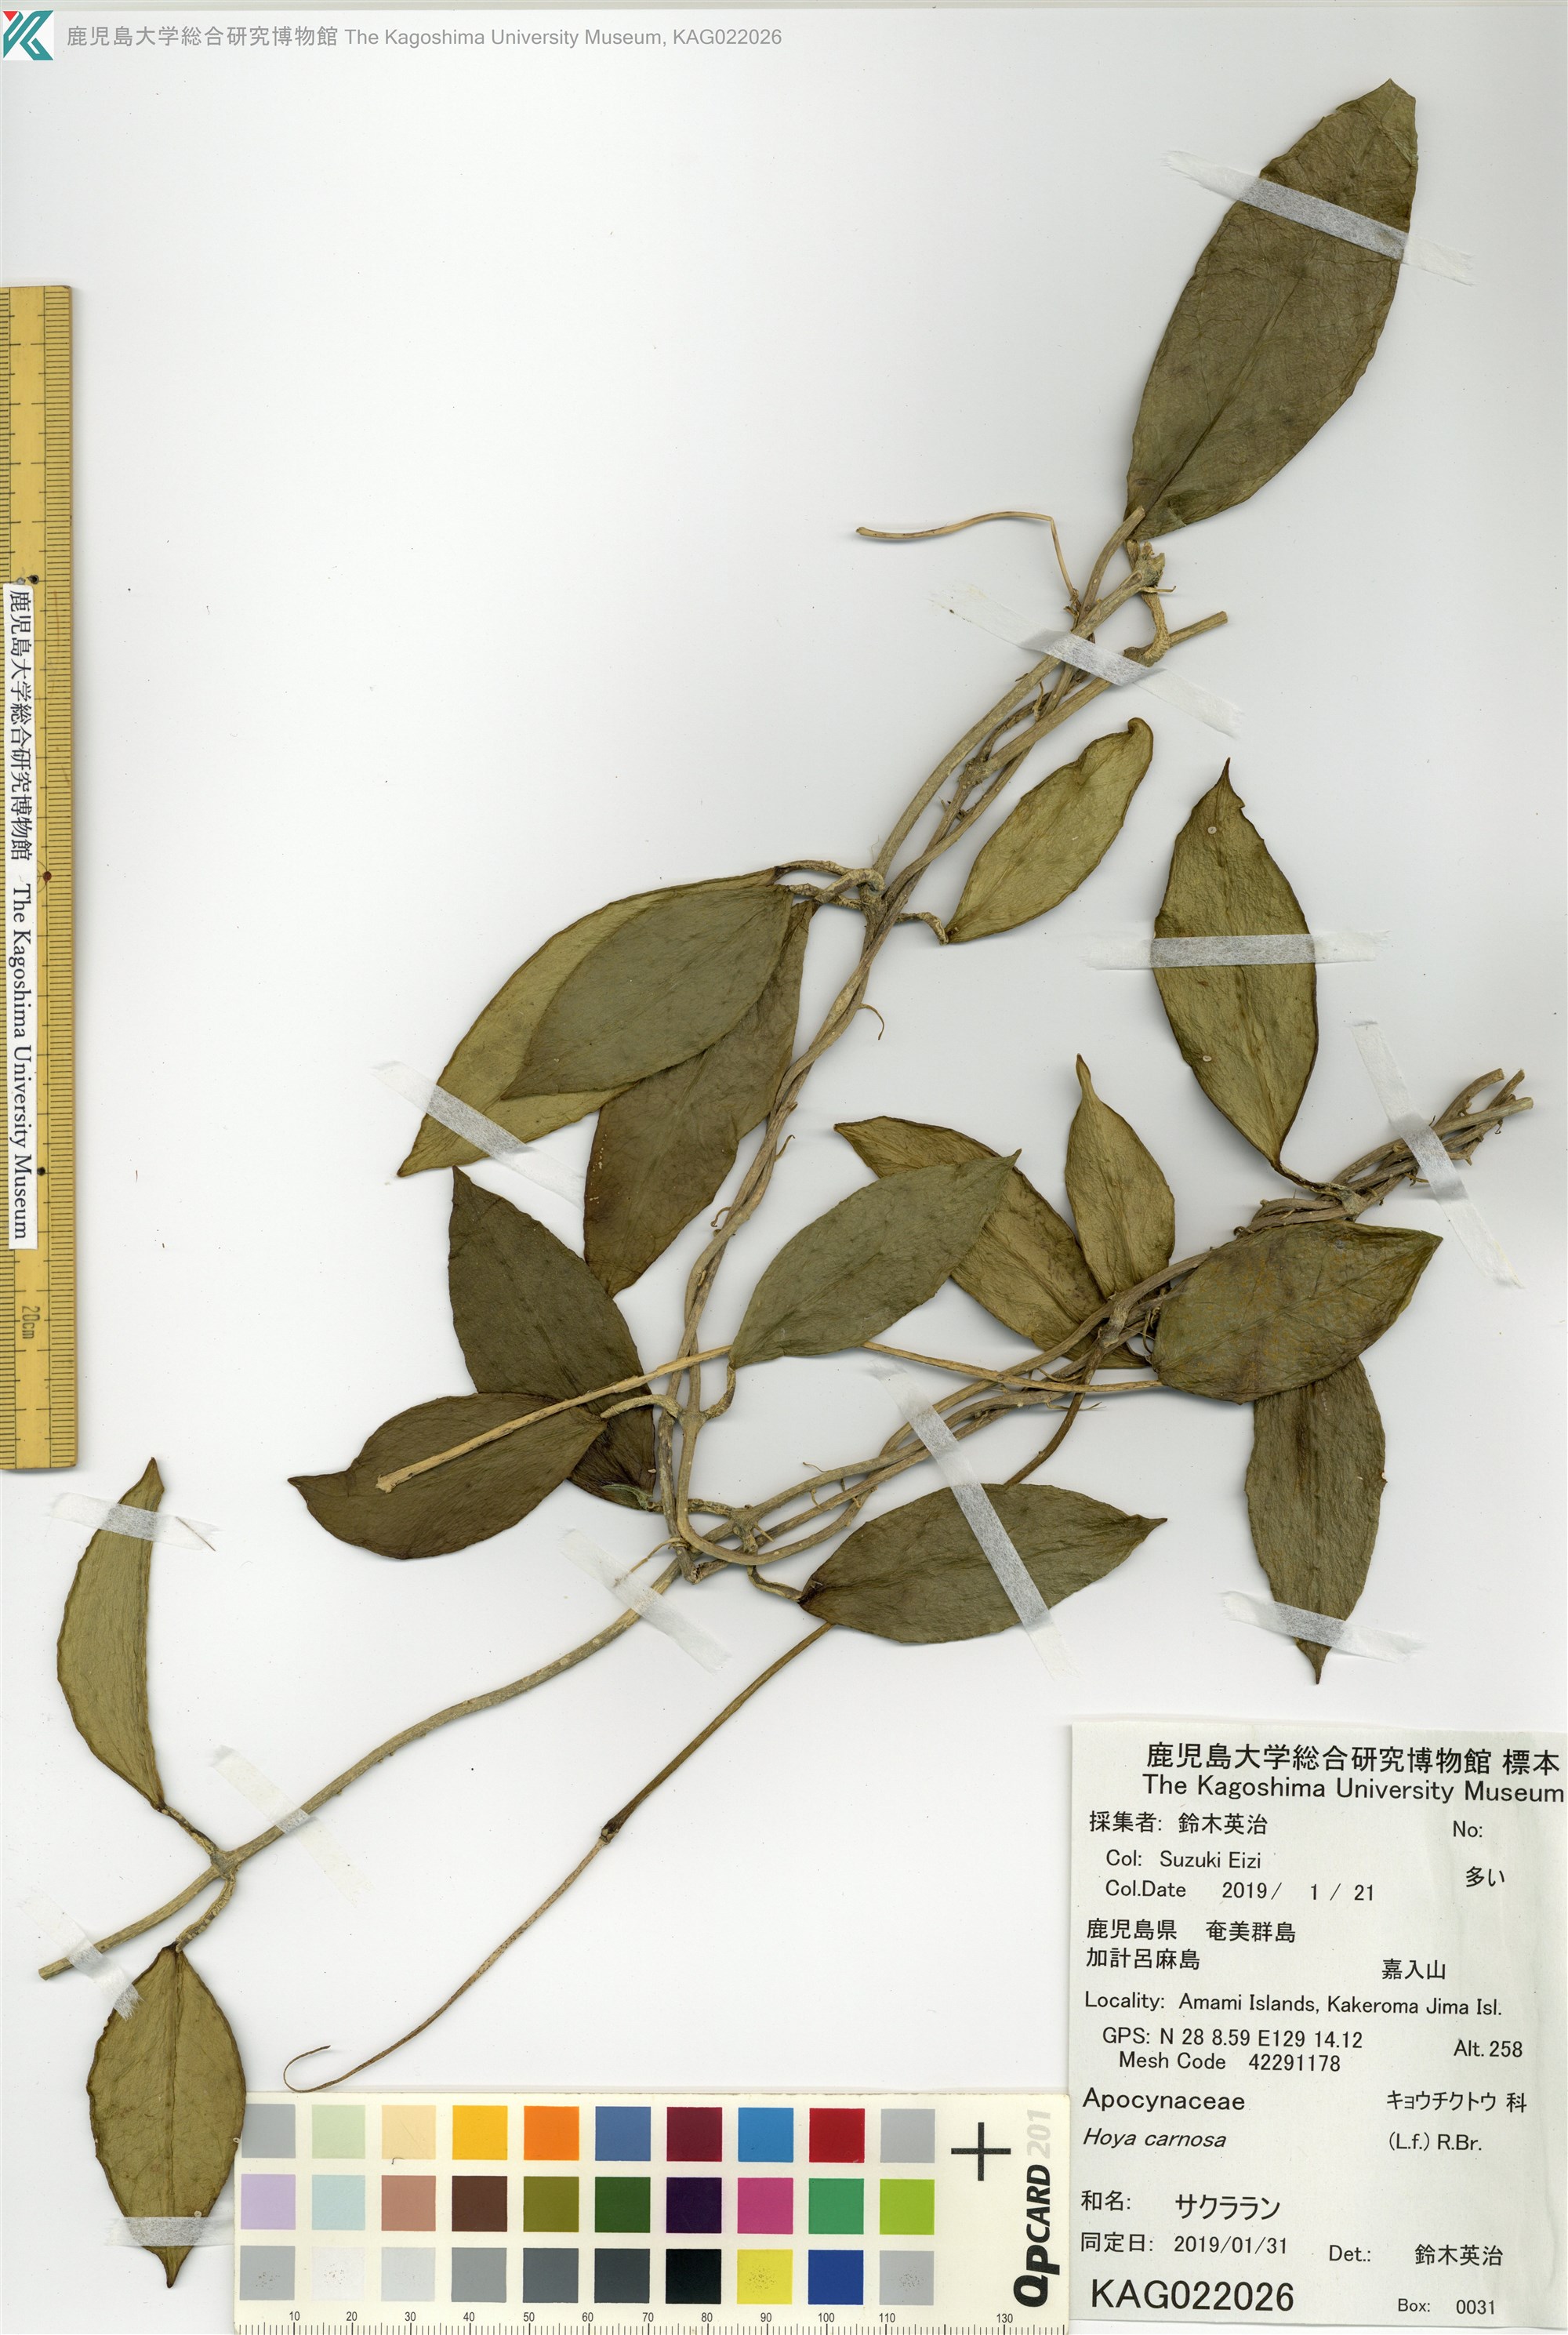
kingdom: Plantae
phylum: Tracheophyta
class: Magnoliopsida
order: Gentianales
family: Apocynaceae
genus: Hoya
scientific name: Hoya carnosa
